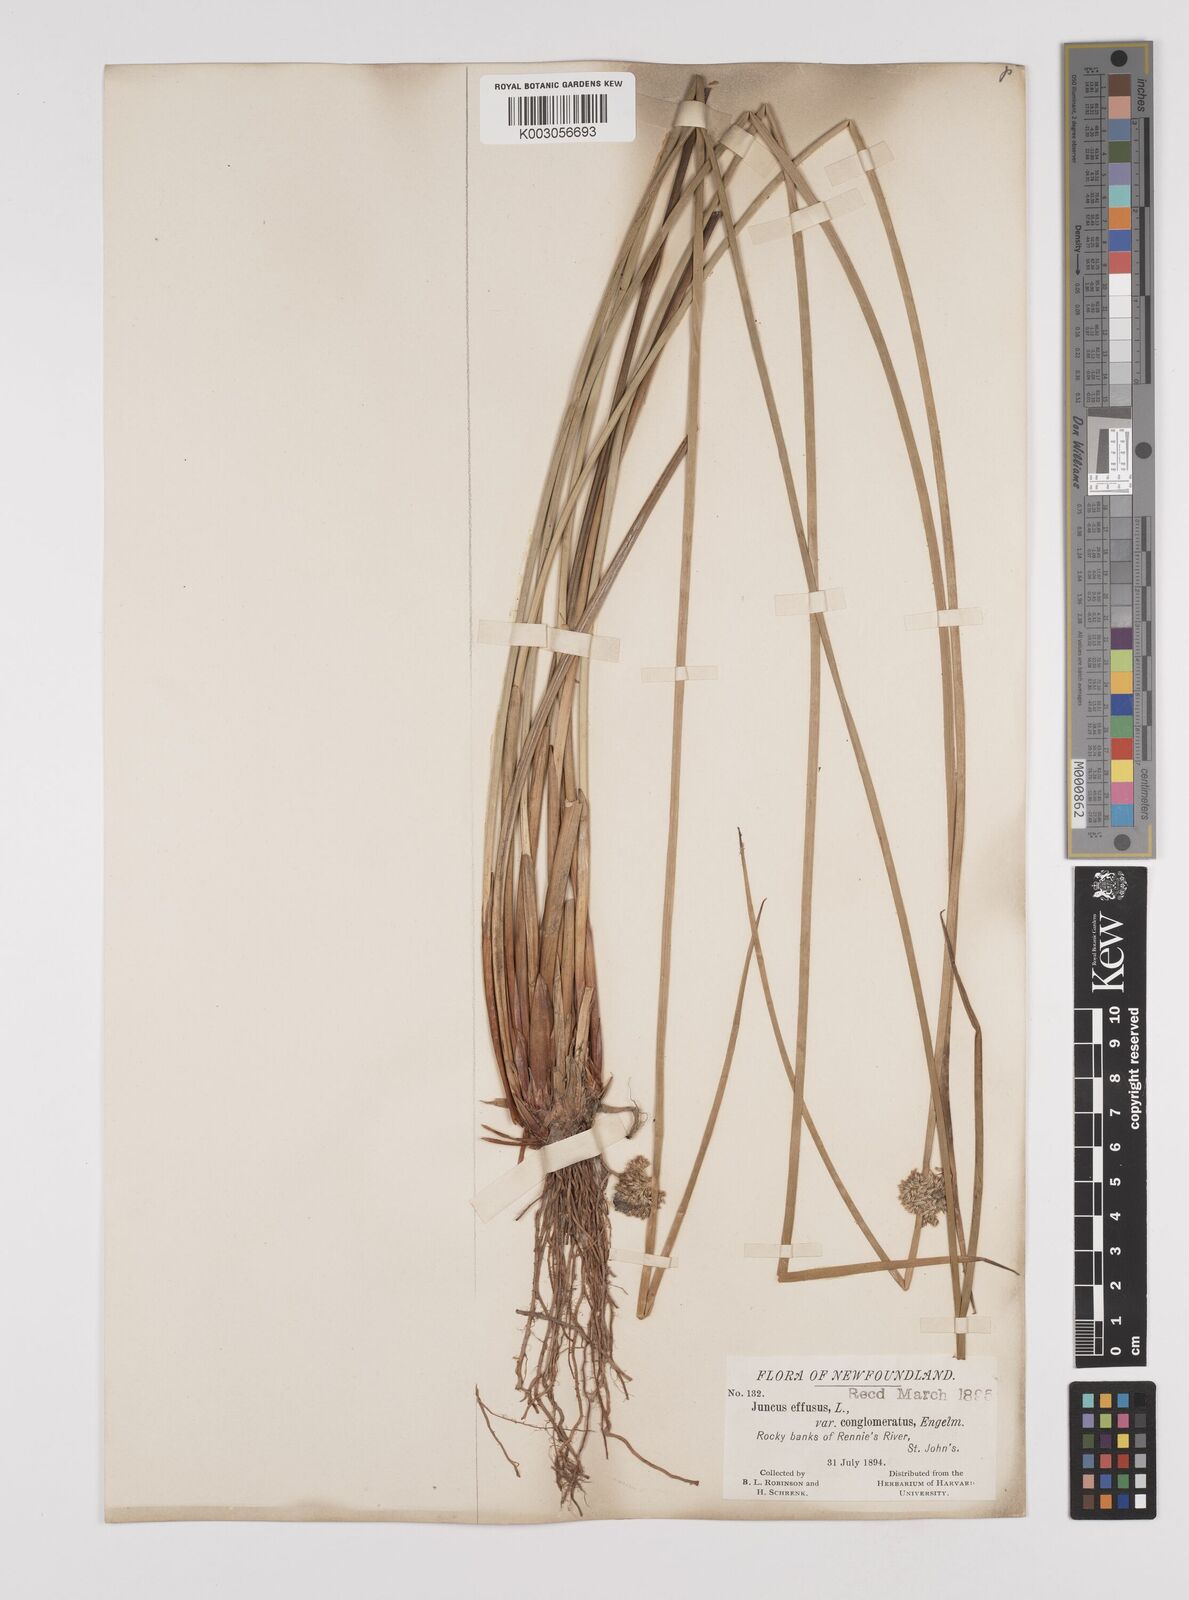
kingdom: Plantae
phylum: Tracheophyta
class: Liliopsida
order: Poales
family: Juncaceae
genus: Juncus
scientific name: Juncus conglomeratus
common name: Compact rush
